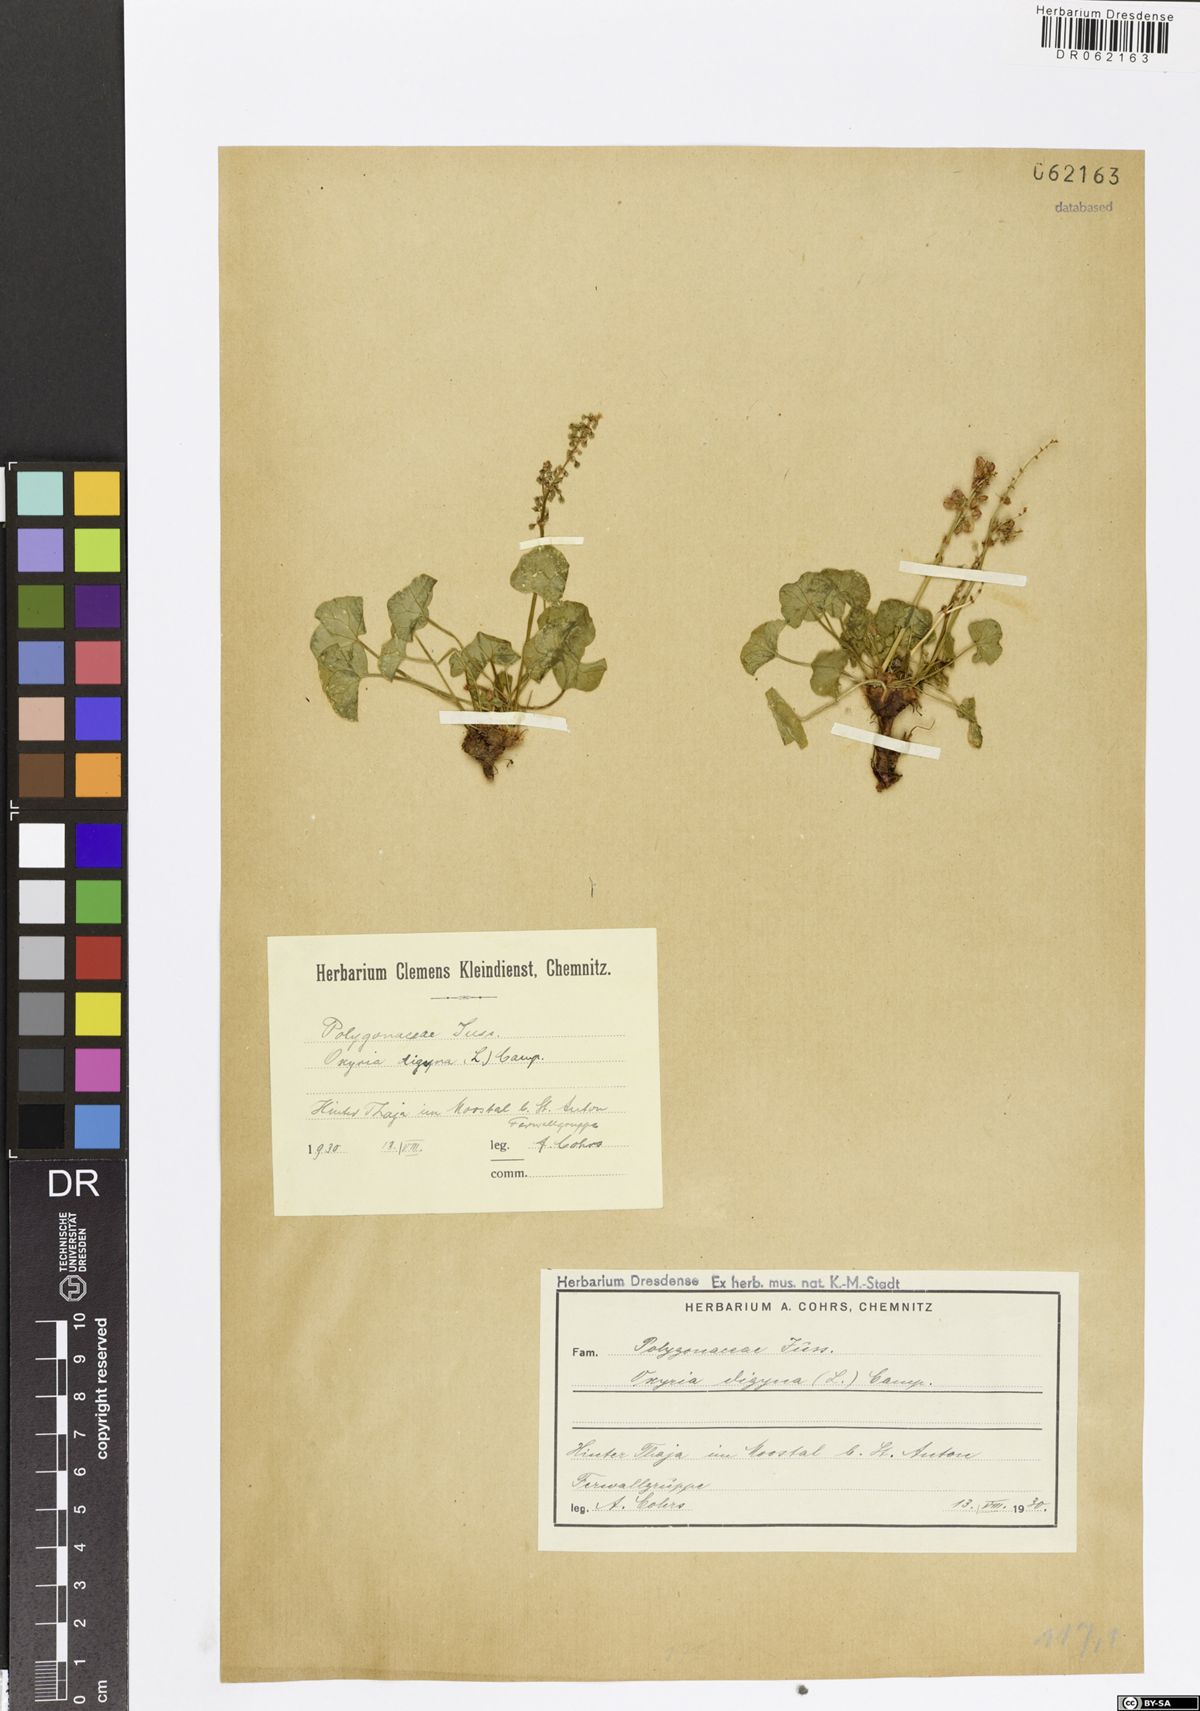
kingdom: Plantae
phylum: Tracheophyta
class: Magnoliopsida
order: Caryophyllales
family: Polygonaceae
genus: Oxyria
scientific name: Oxyria digyna
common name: Alpine mountain-sorrel
